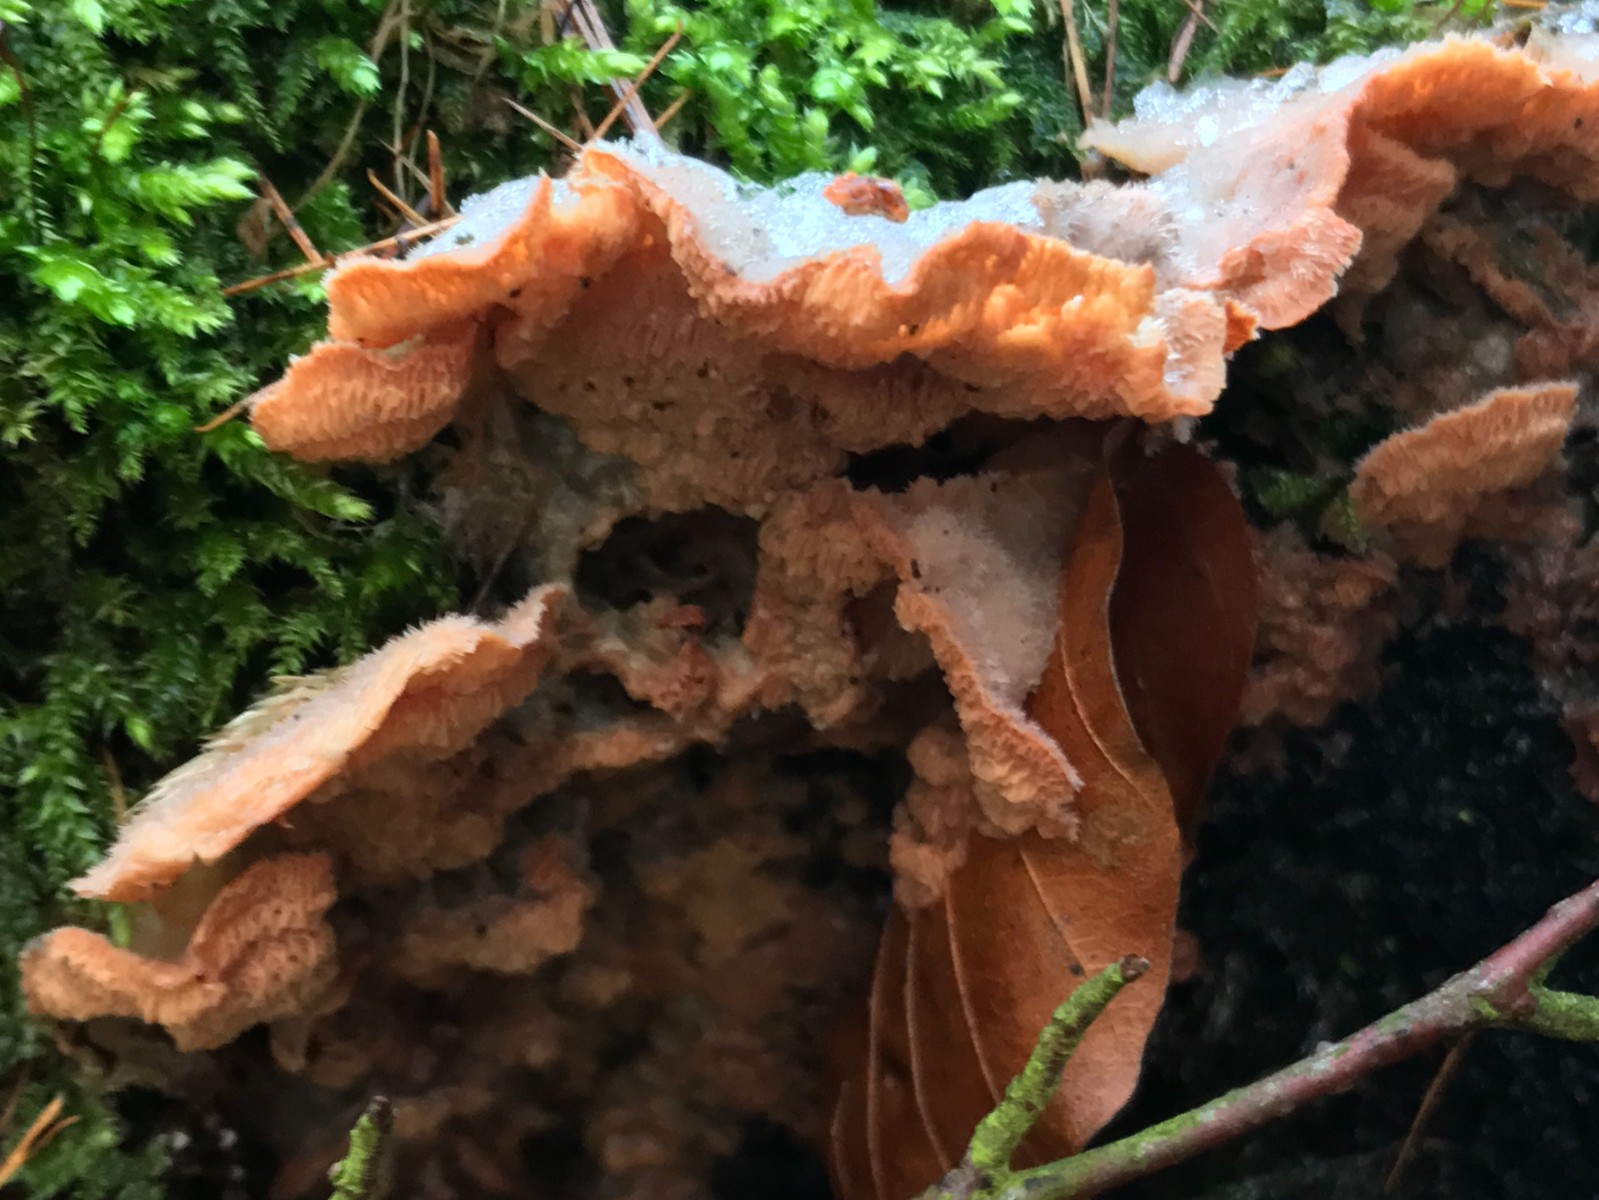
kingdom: Fungi
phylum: Basidiomycota
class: Agaricomycetes
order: Polyporales
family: Meruliaceae
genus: Phlebia
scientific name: Phlebia tremellosa
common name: bævrende åresvamp
